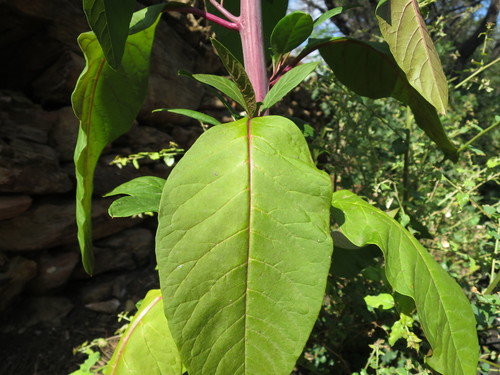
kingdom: Plantae
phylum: Tracheophyta
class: Magnoliopsida
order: Caryophyllales
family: Phytolaccaceae
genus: Phytolacca
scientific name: Phytolacca americana
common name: American pokeweed
